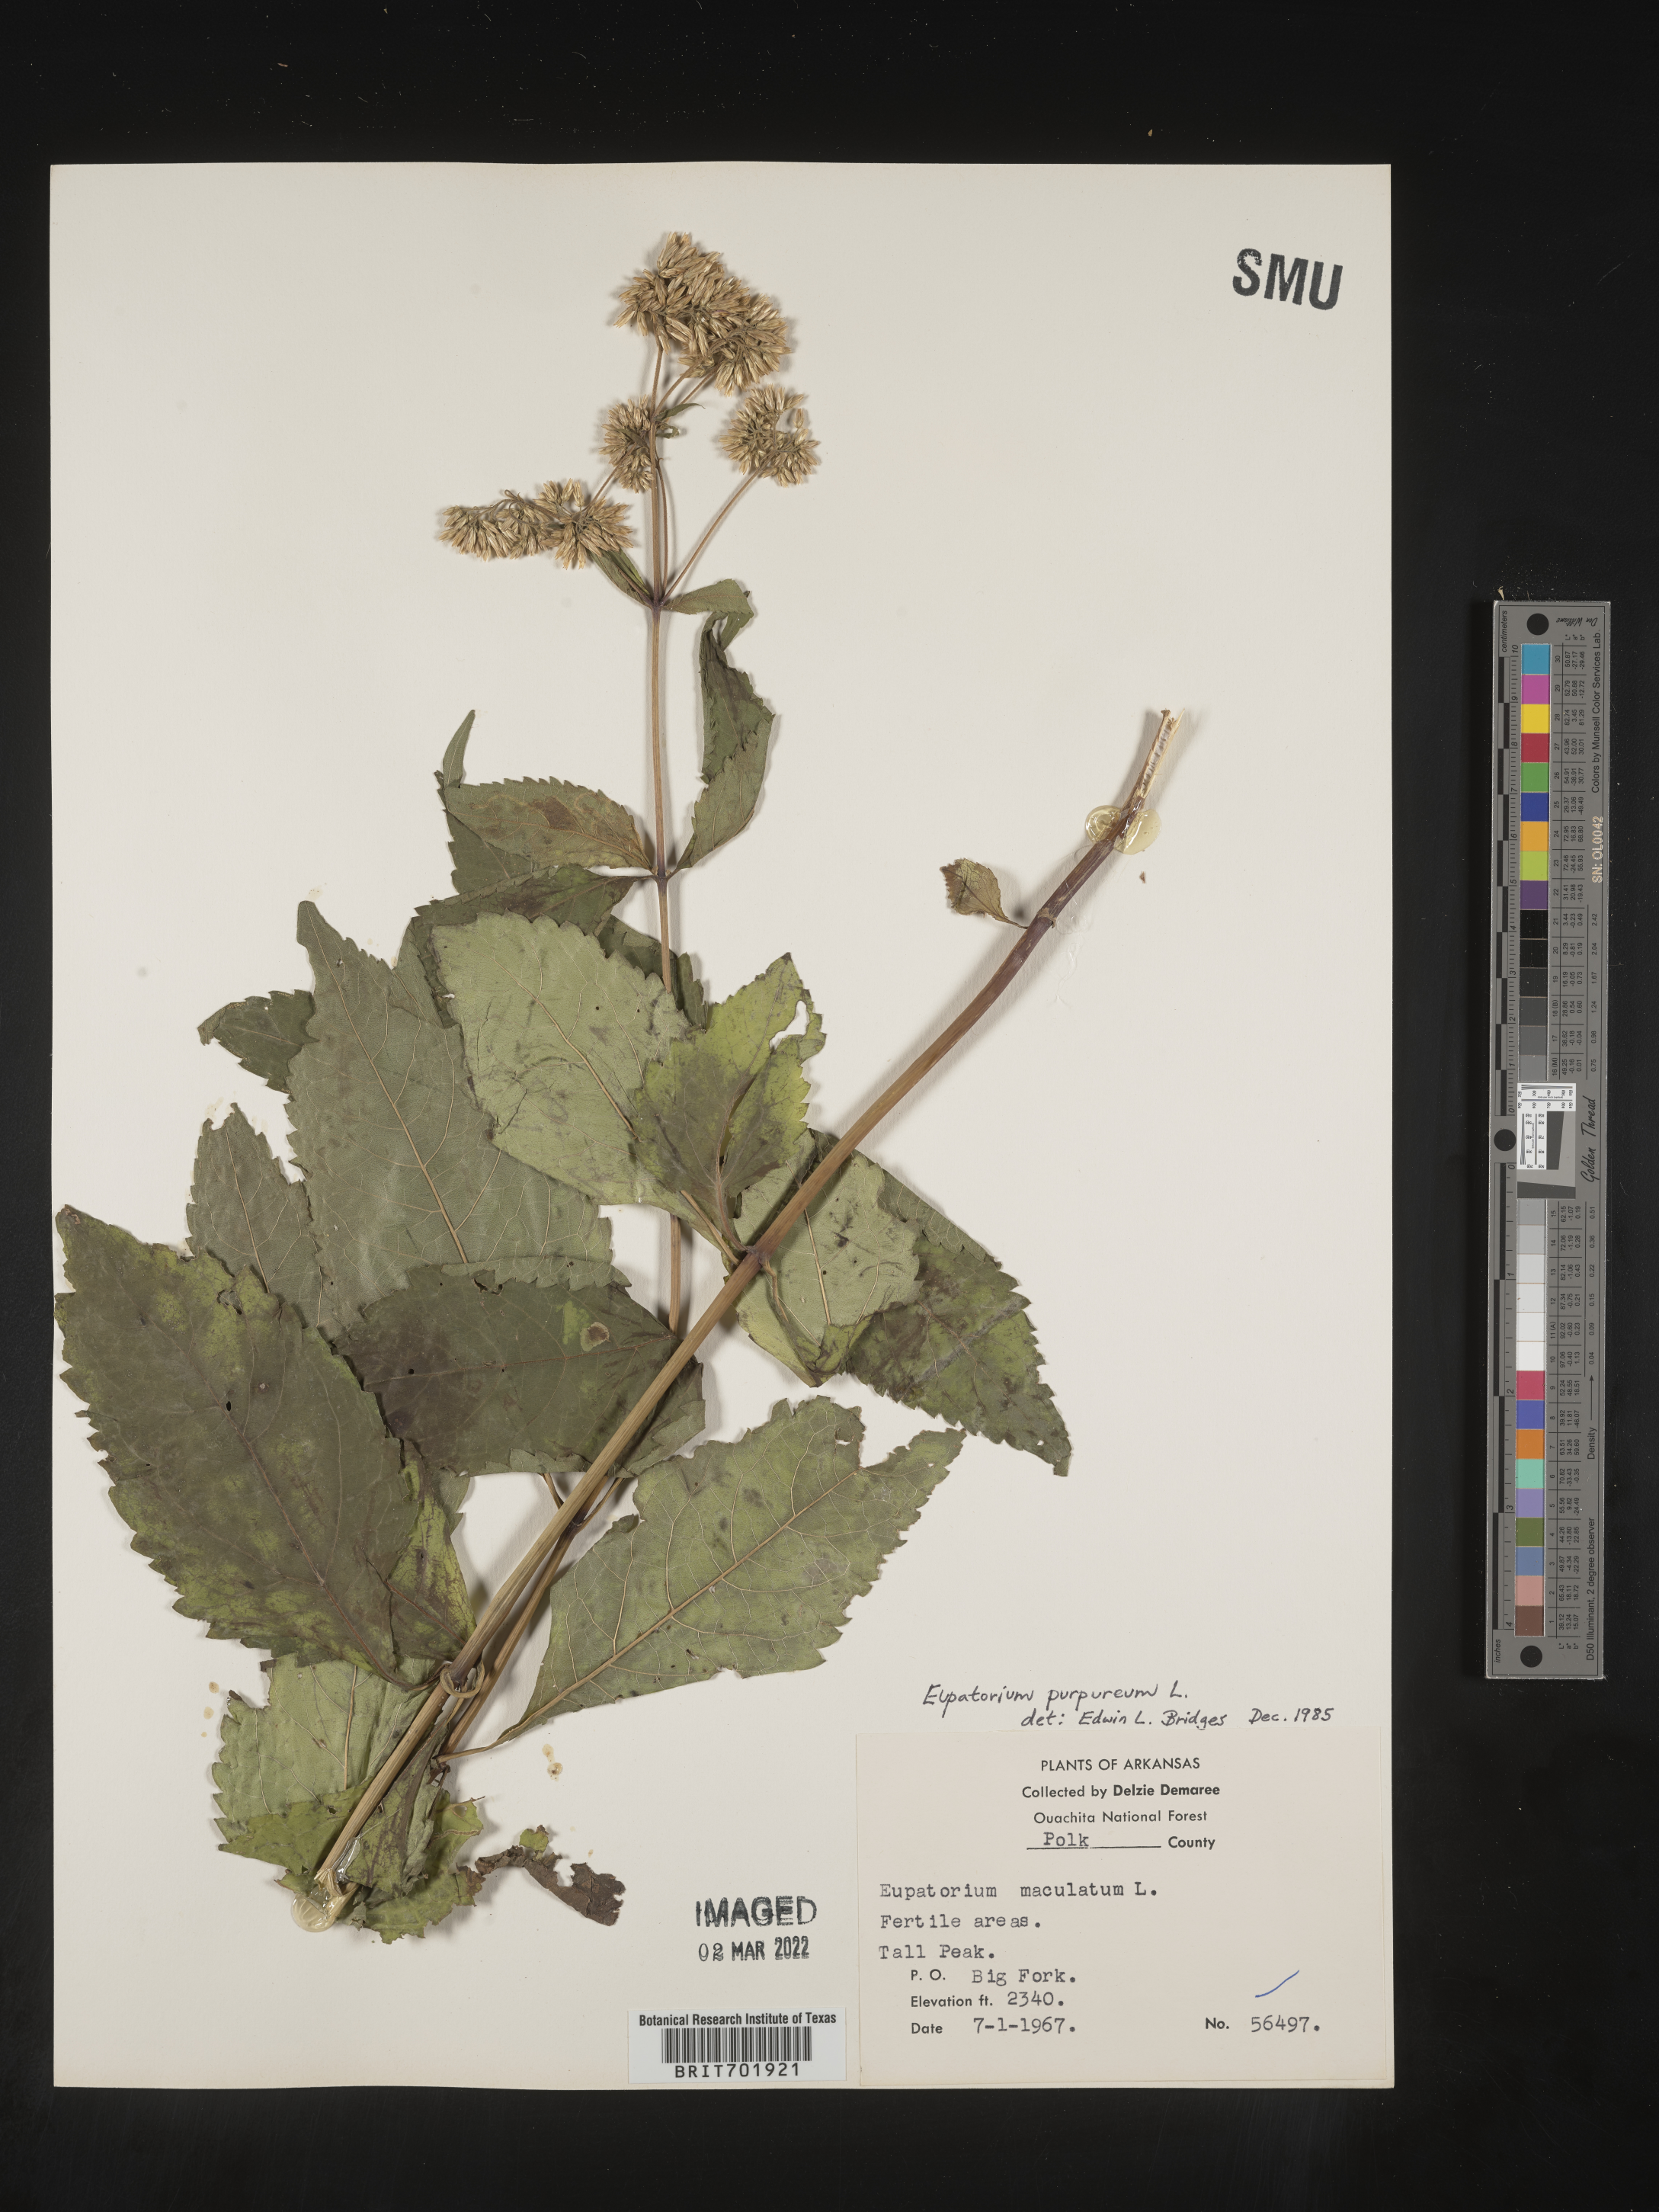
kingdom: Plantae
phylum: Tracheophyta
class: Magnoliopsida
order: Asterales
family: Asteraceae
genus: Eupatorium
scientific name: Eupatorium quaternum
